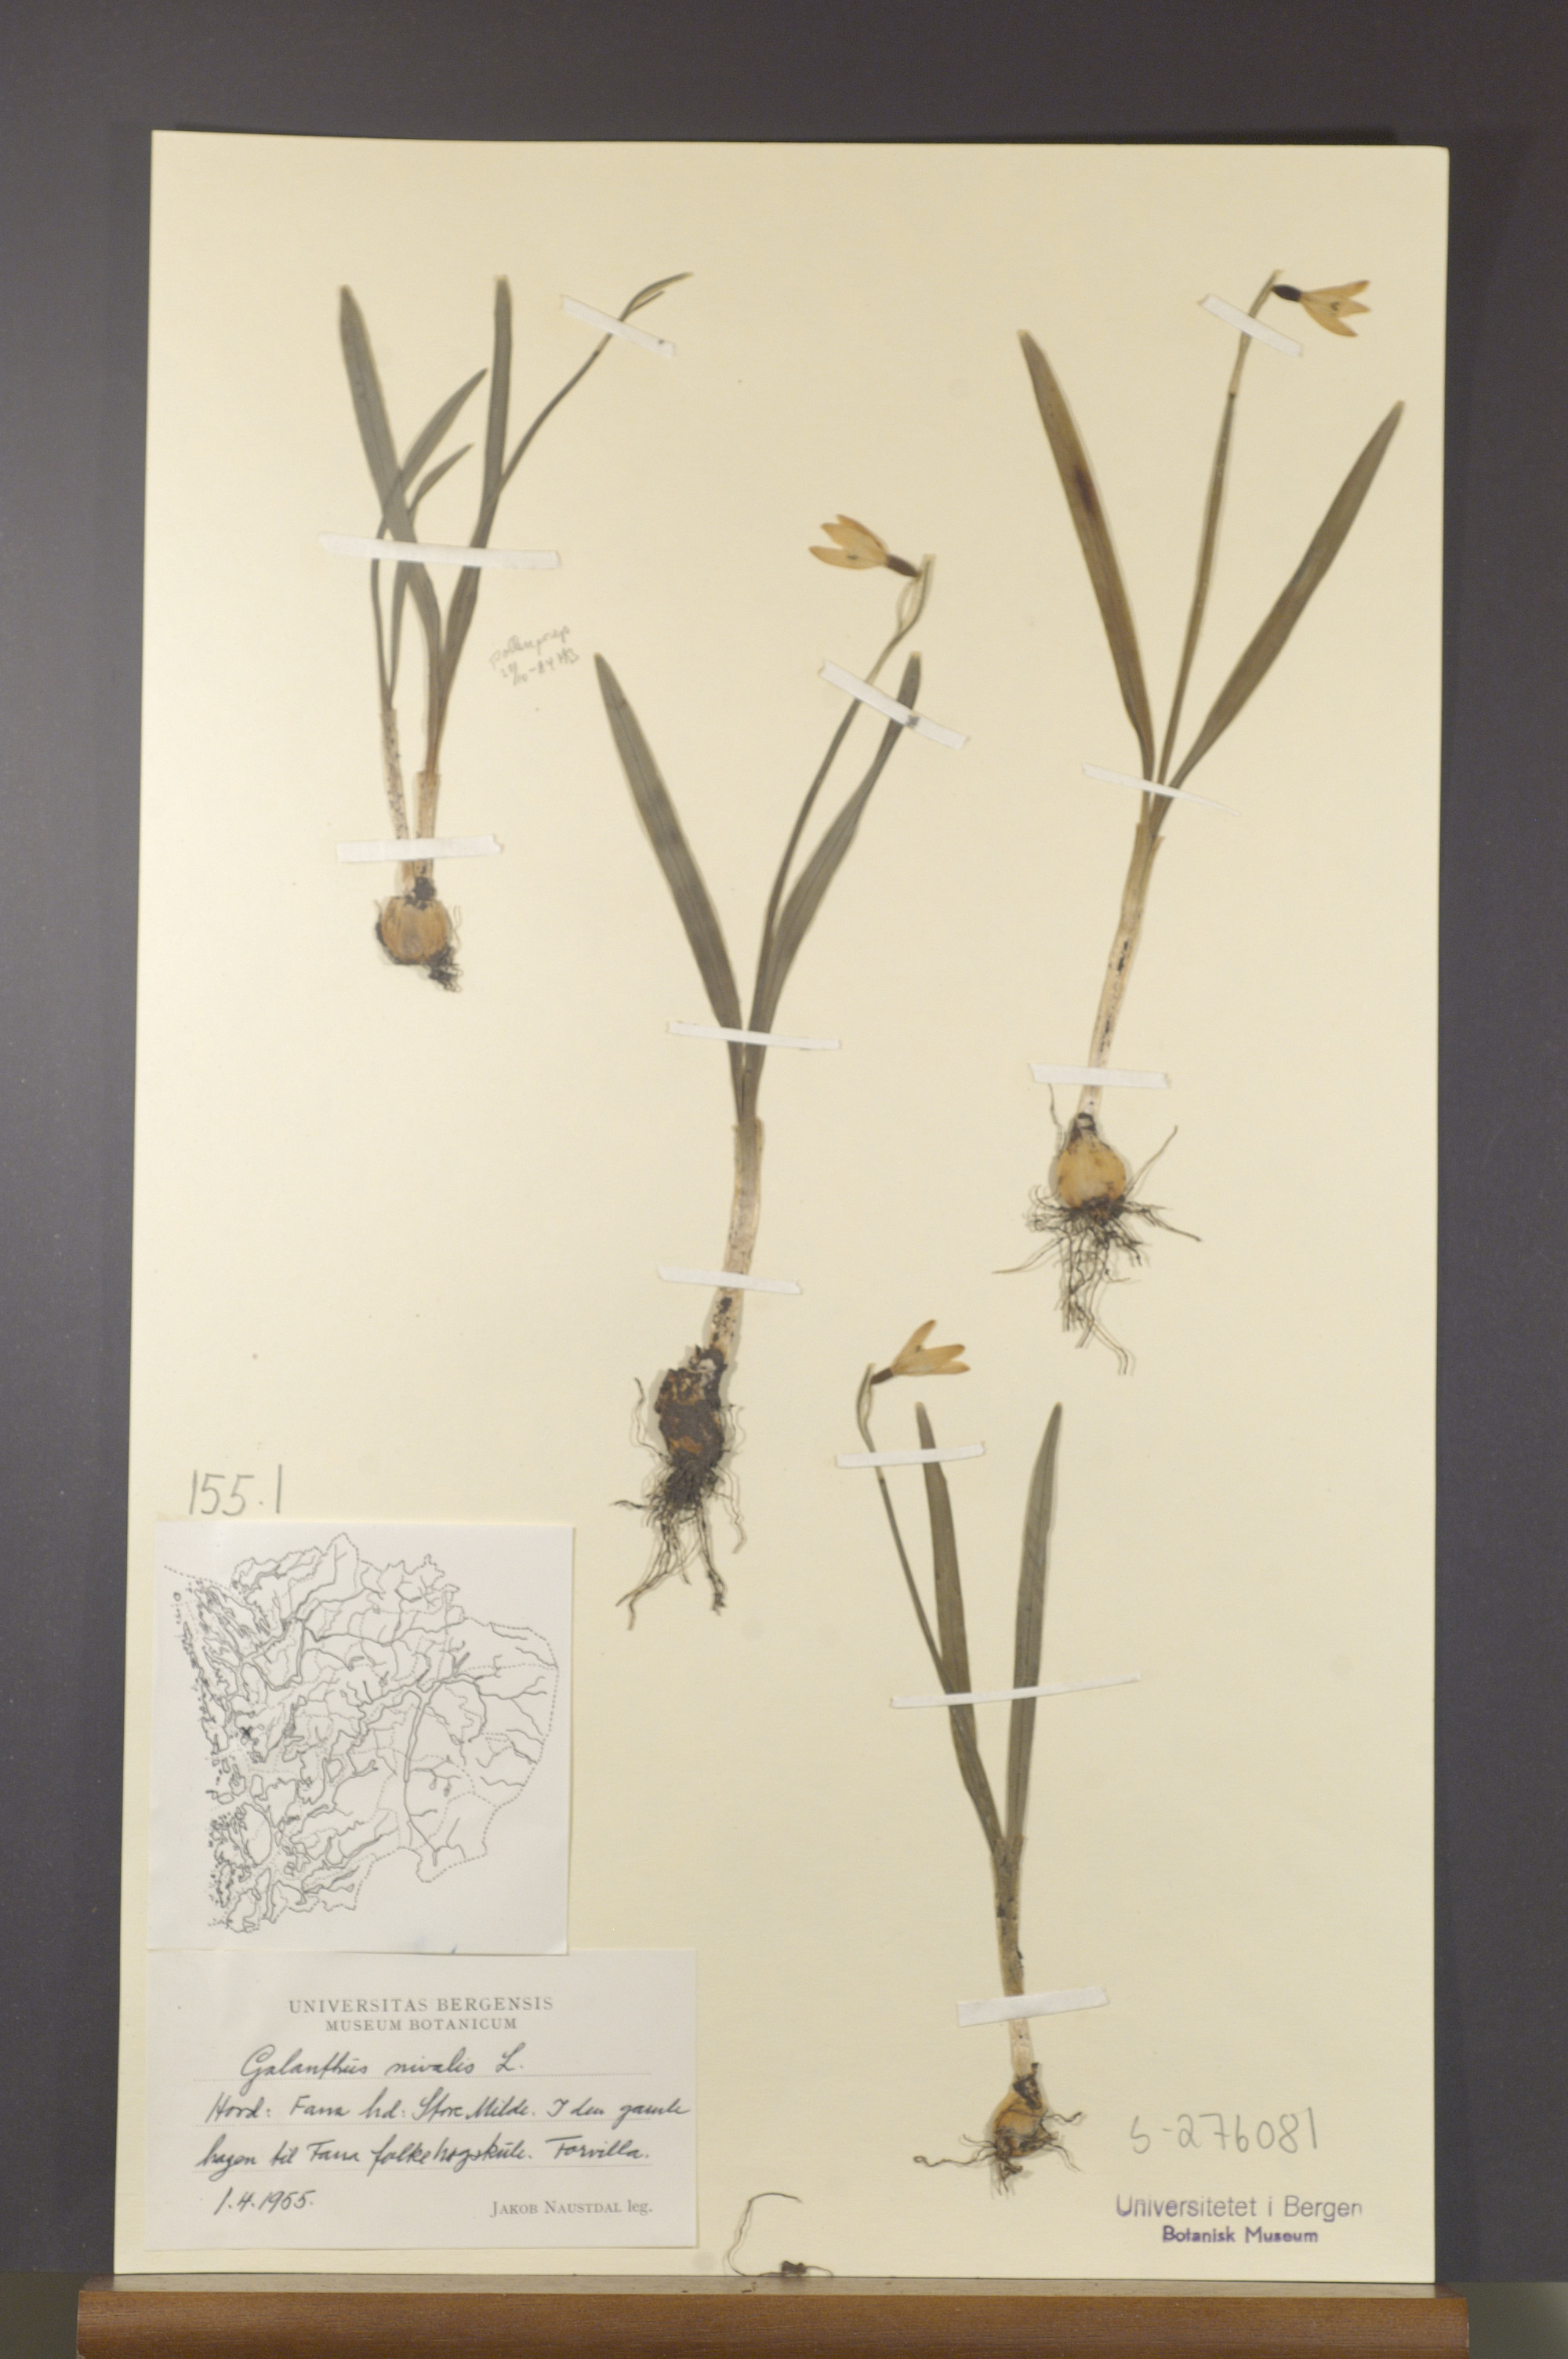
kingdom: Plantae
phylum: Tracheophyta
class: Liliopsida
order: Asparagales
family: Amaryllidaceae
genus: Galanthus
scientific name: Galanthus nivalis
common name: Snowdrop
